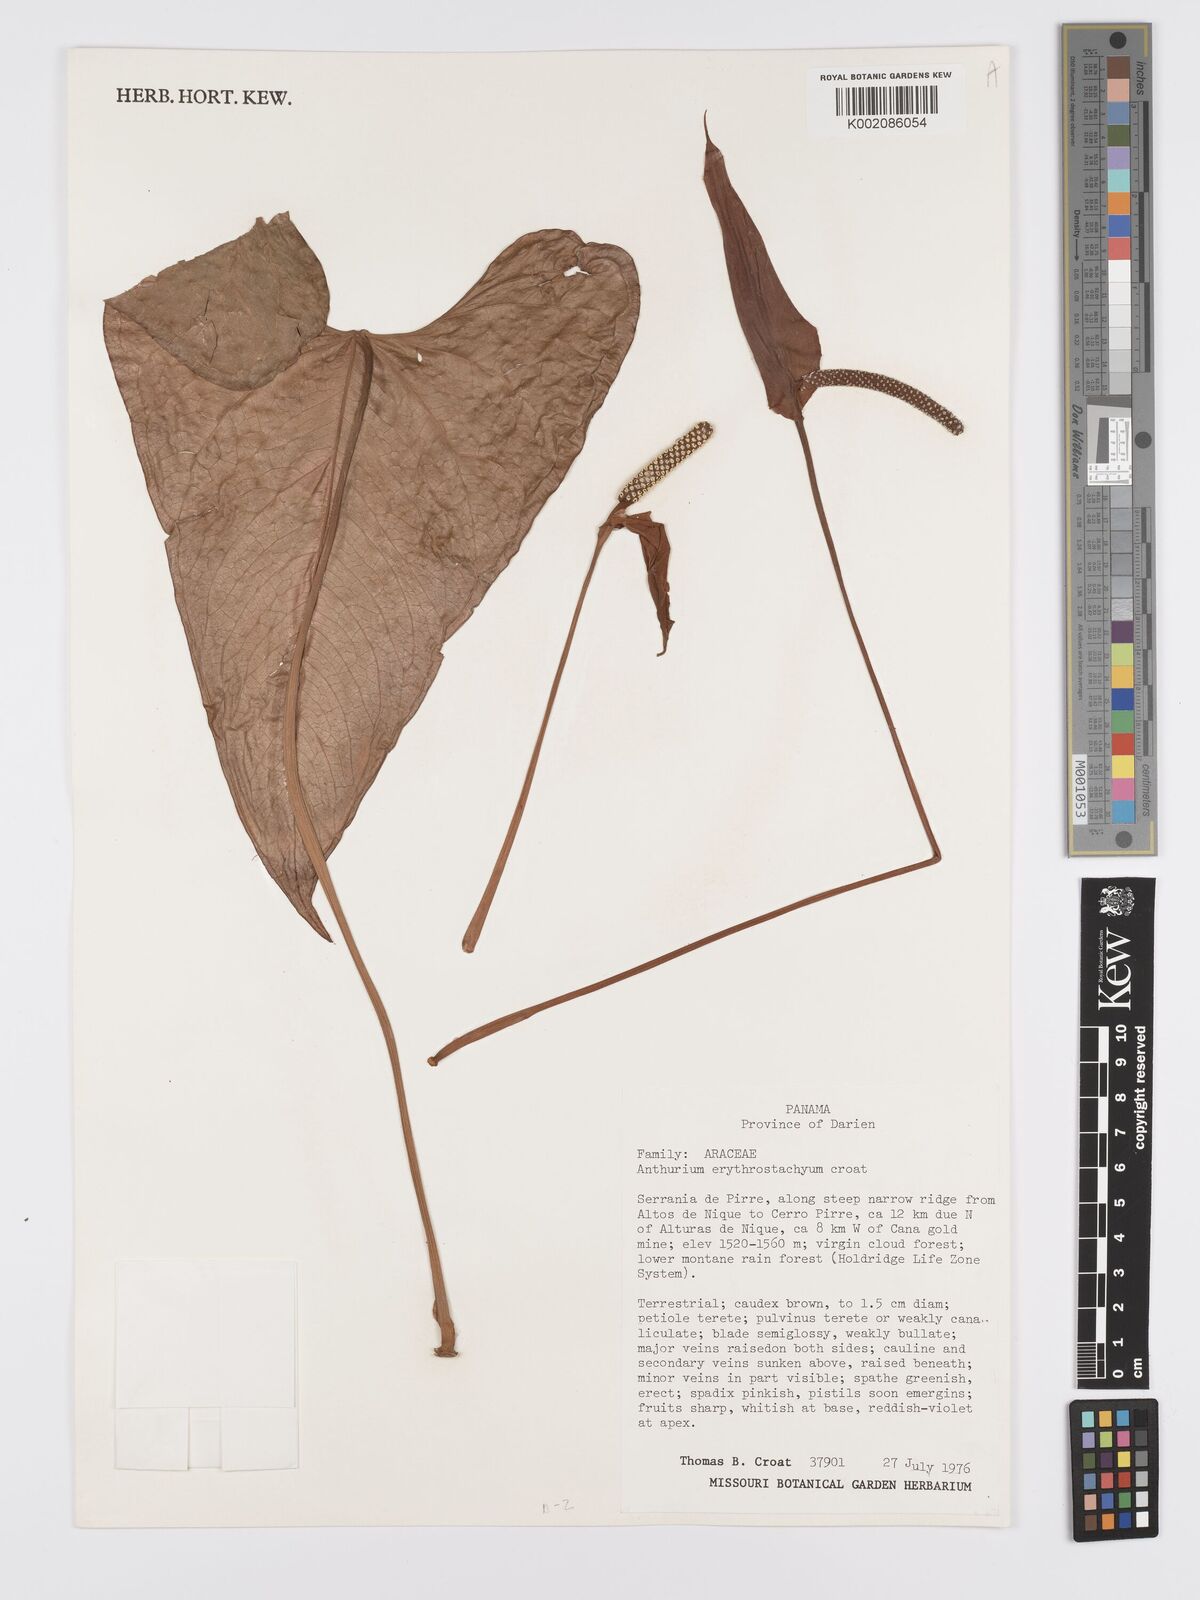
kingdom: Plantae
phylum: Tracheophyta
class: Liliopsida
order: Alismatales
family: Araceae
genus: Anthurium
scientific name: Anthurium erythrostachyum
